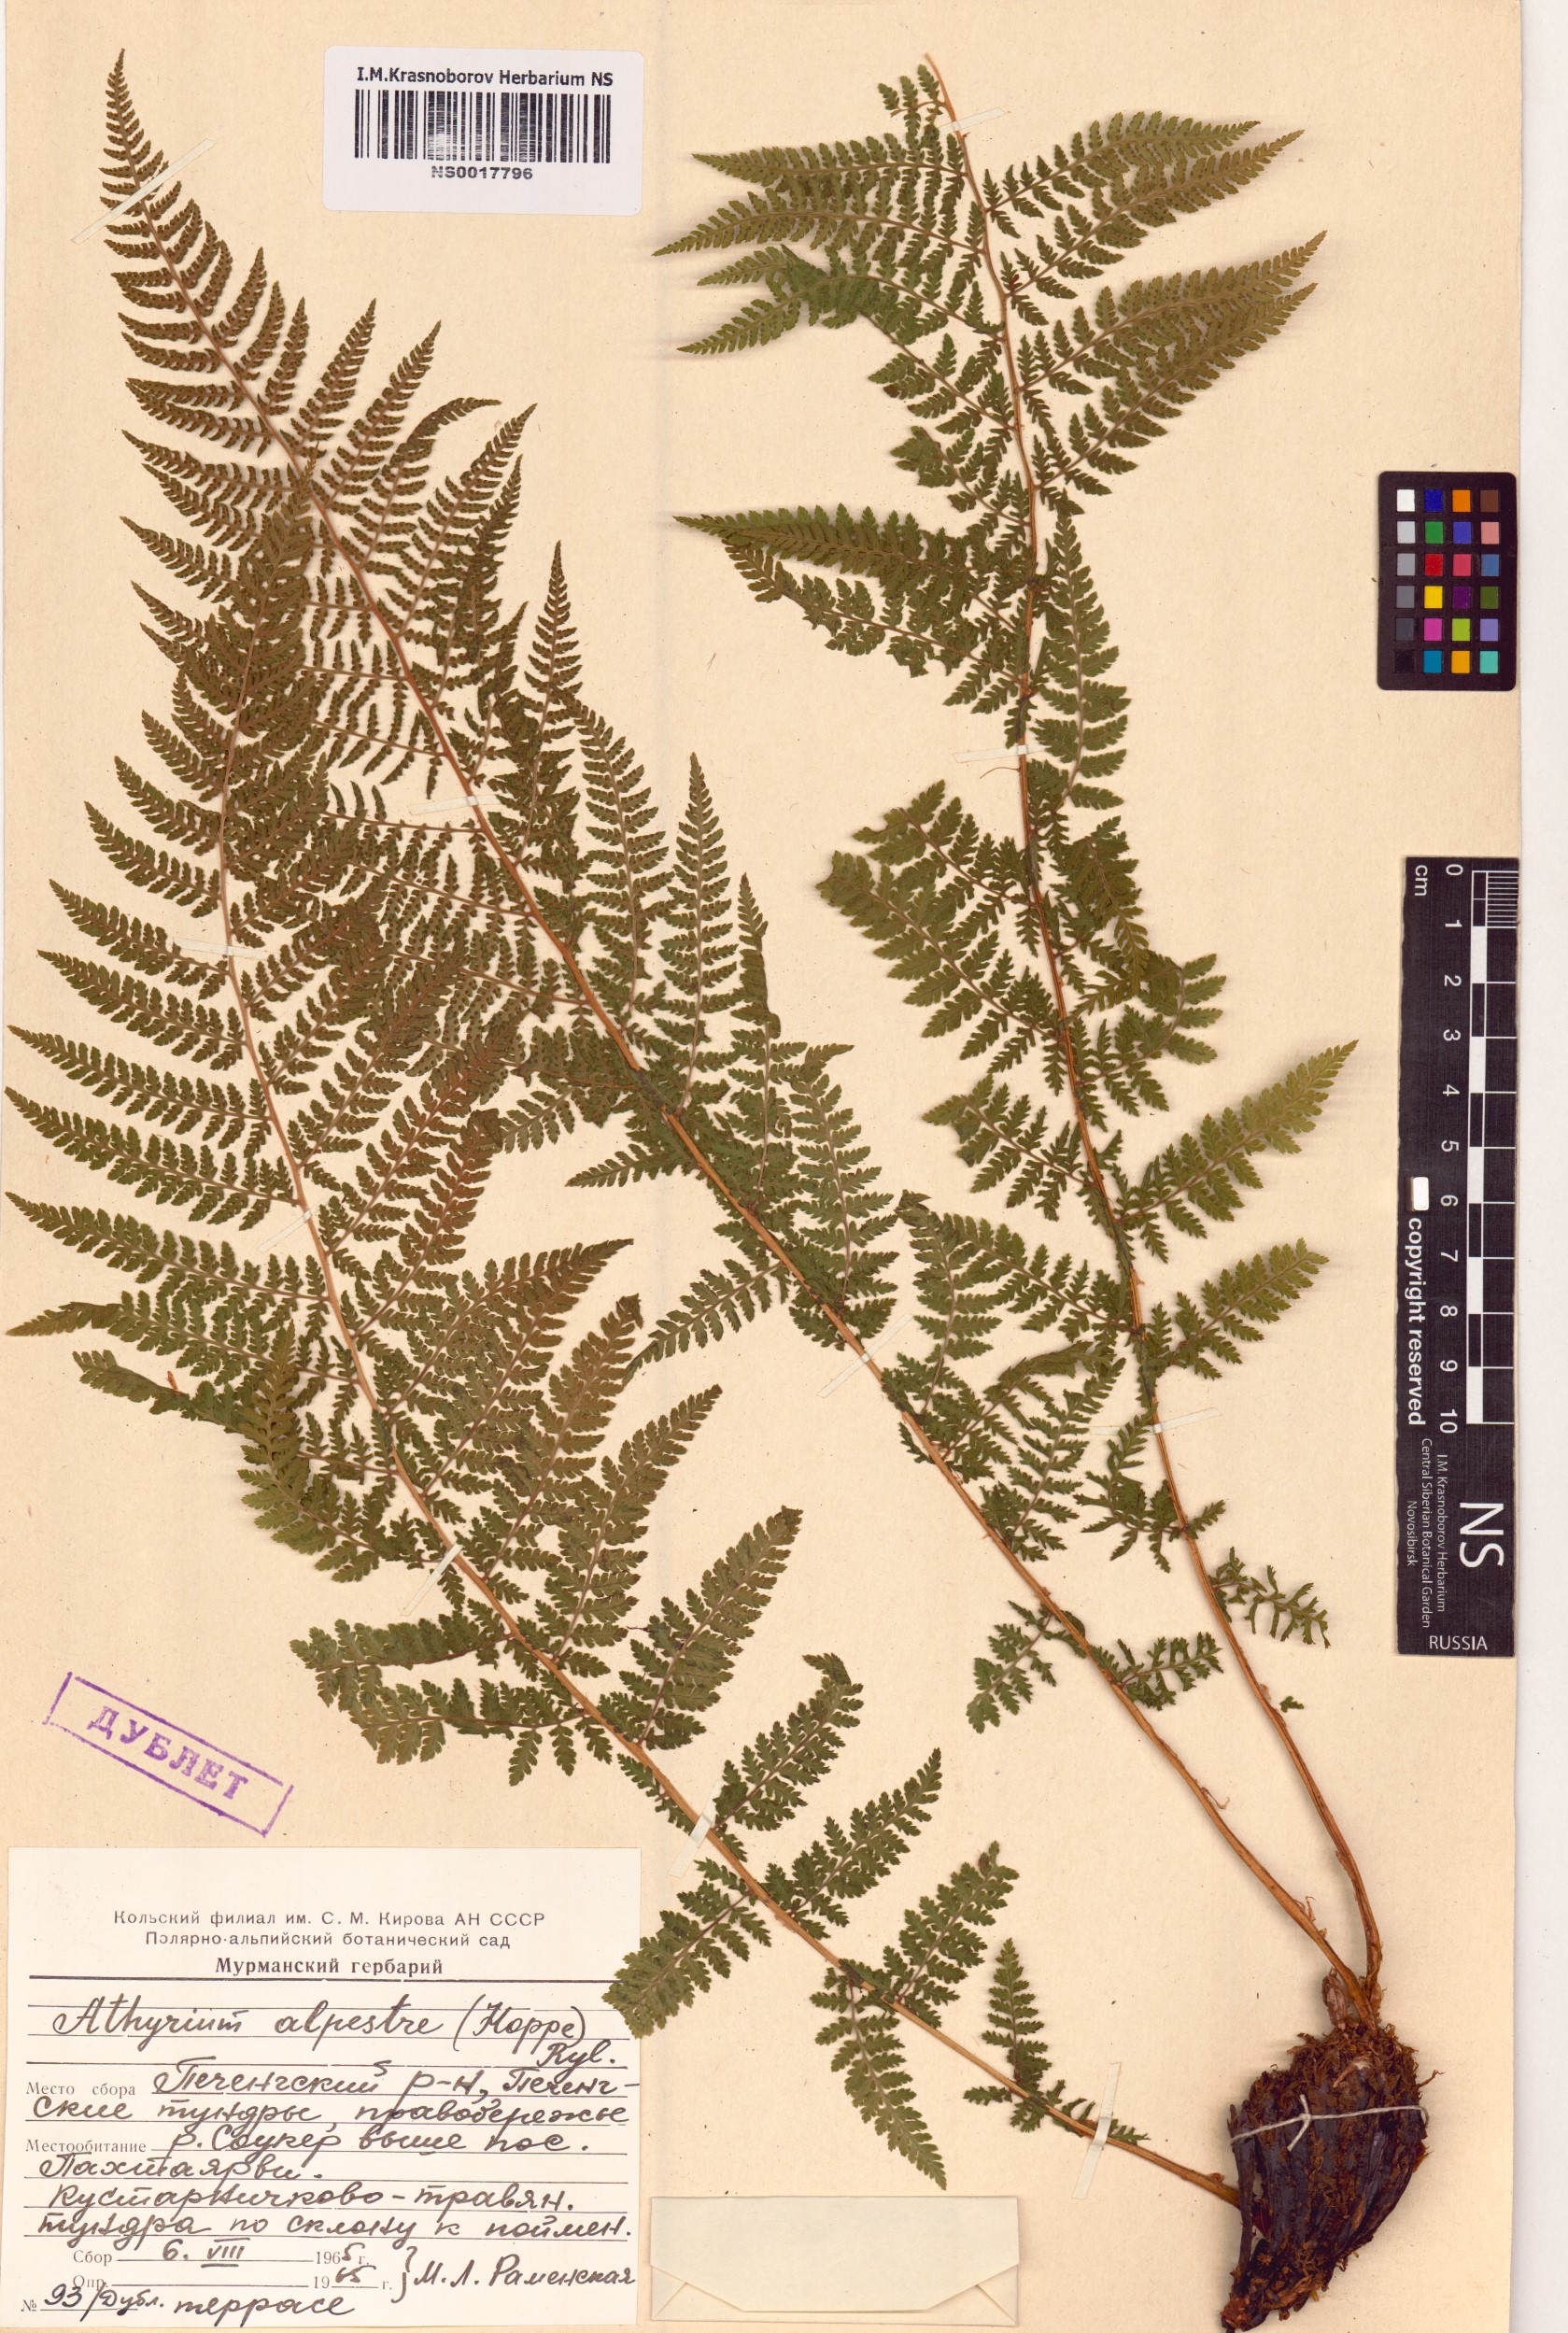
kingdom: Plantae
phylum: Tracheophyta
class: Polypodiopsida
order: Polypodiales
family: Athyriaceae
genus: Pseudathyrium
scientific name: Pseudathyrium alpestre
